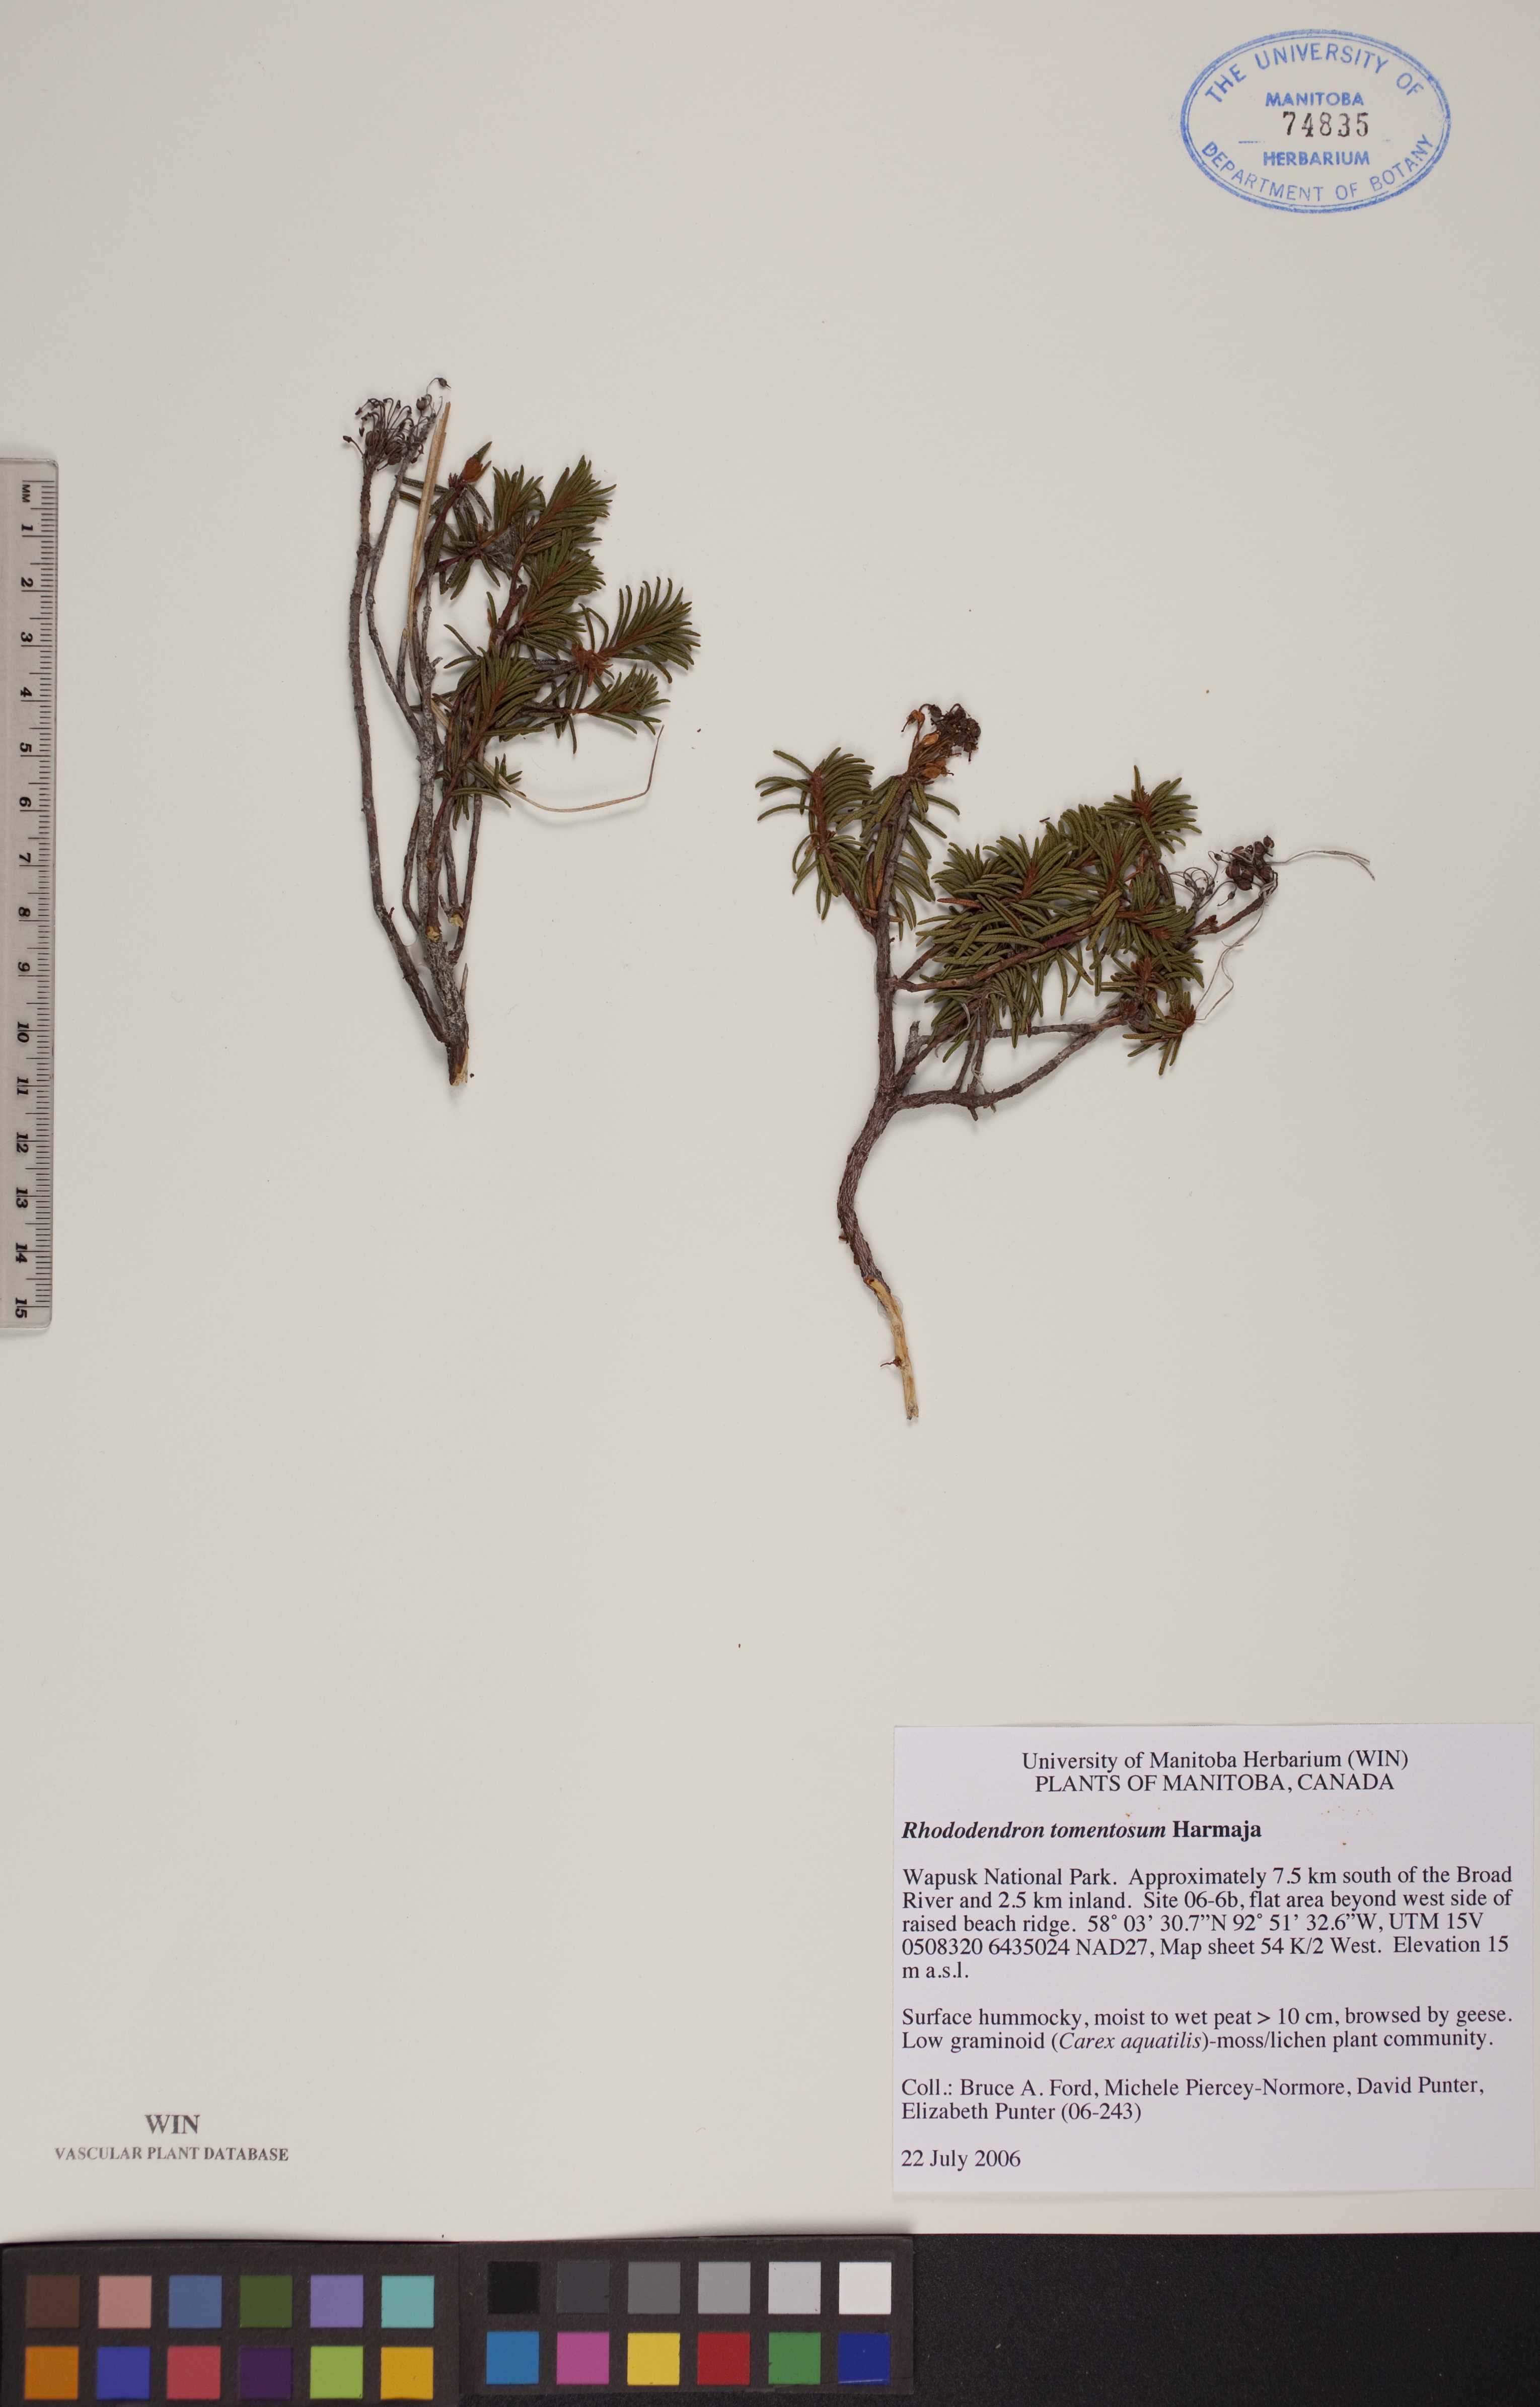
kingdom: Plantae
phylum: Tracheophyta
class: Magnoliopsida
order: Ericales
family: Ericaceae
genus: Rhododendron
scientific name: Rhododendron tomentosum
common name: Marsh labrador tea
